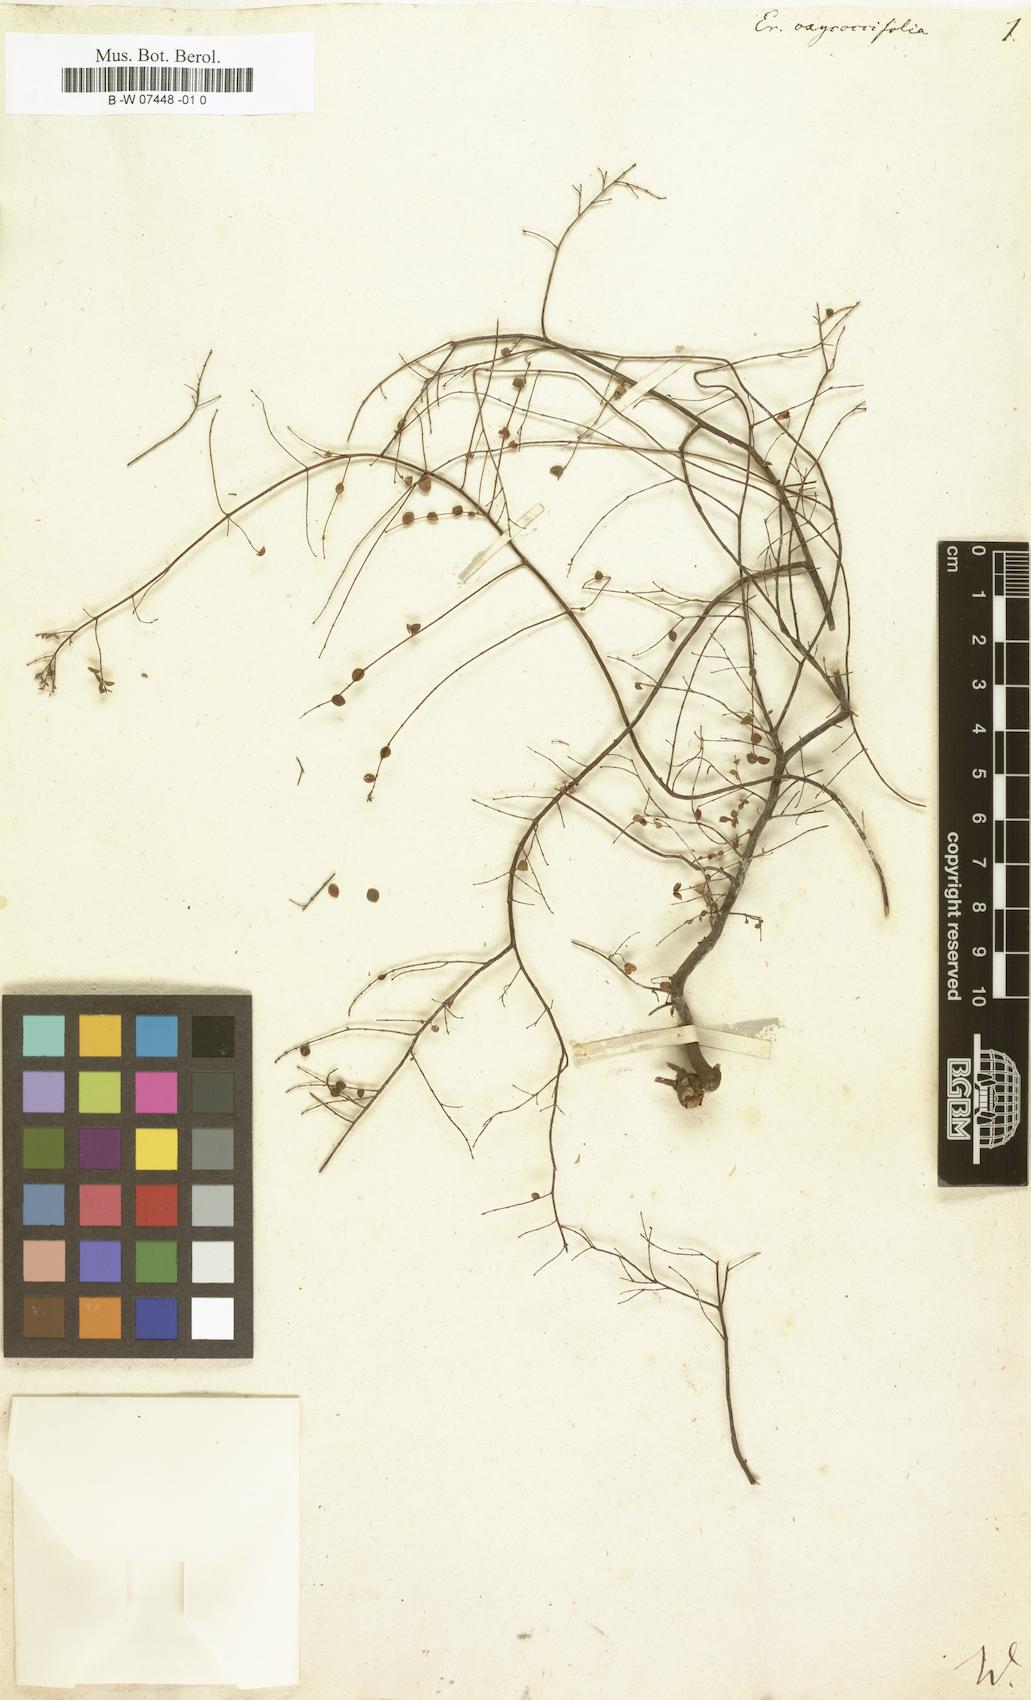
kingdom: Plantae
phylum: Tracheophyta
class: Magnoliopsida
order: Ericales
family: Ericaceae
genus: Erica
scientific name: Erica oxycoccifolia
